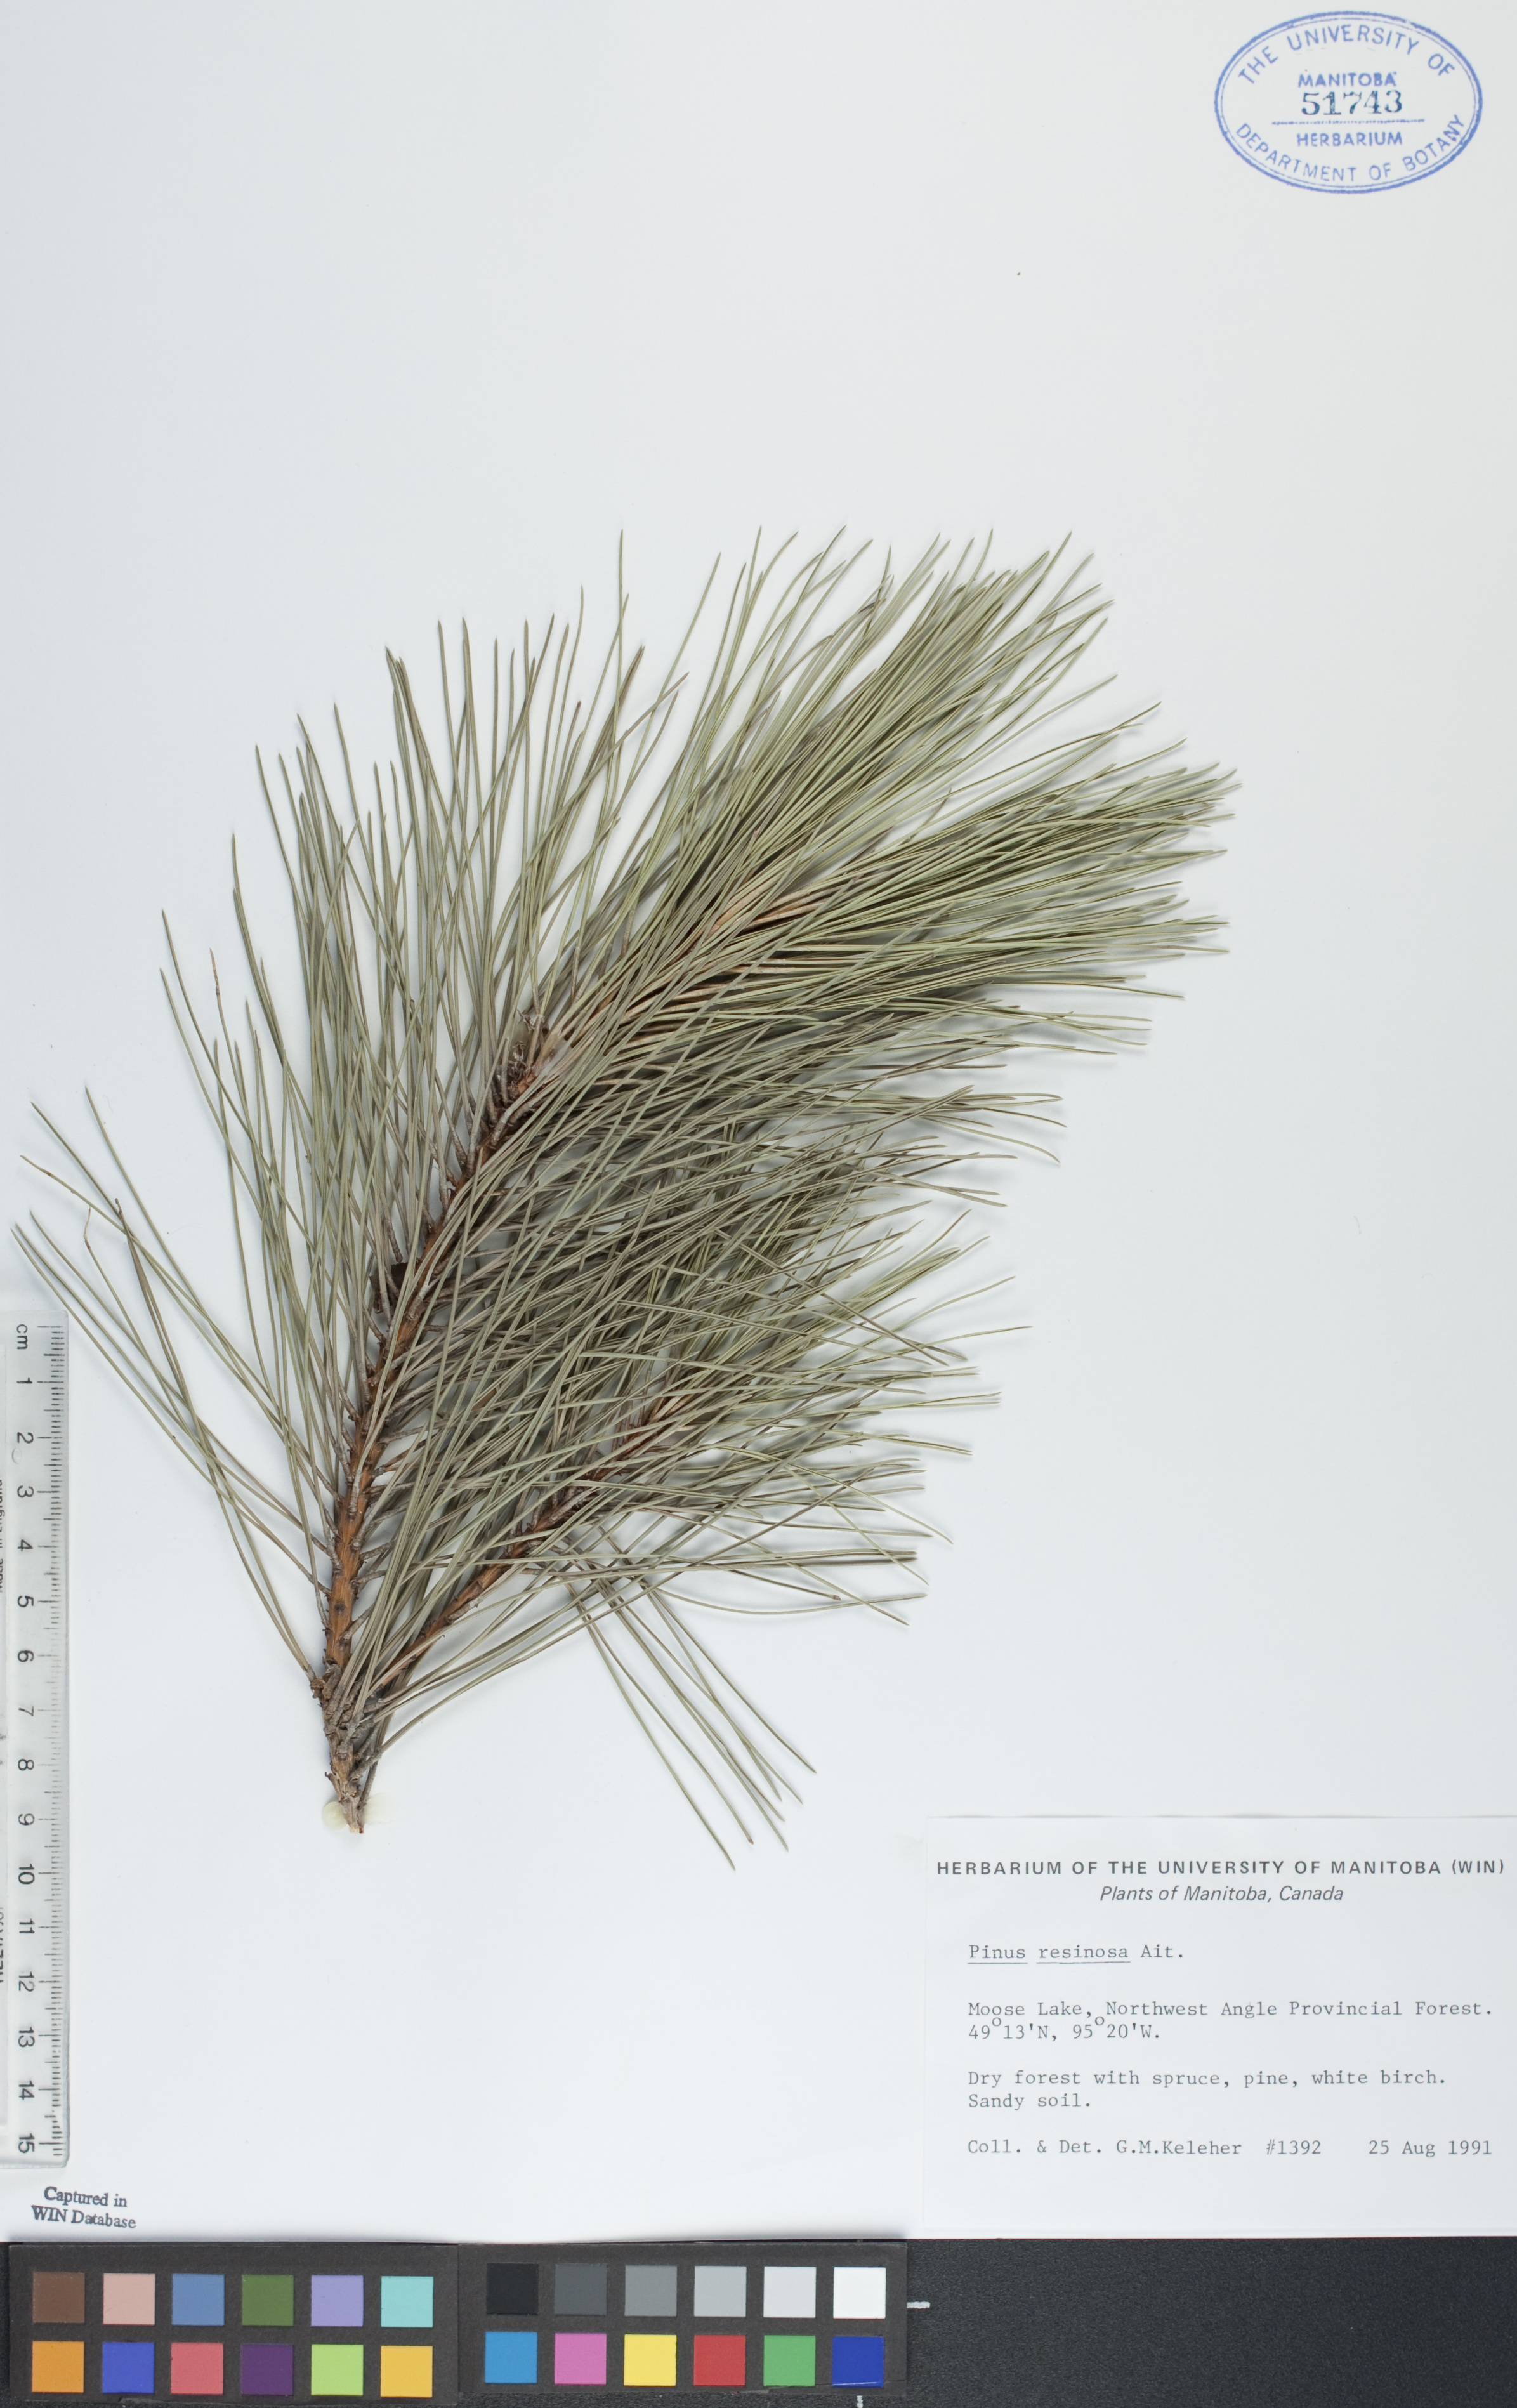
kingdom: Plantae
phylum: Tracheophyta
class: Pinopsida
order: Pinales
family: Pinaceae
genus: Pinus
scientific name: Pinus resinosa
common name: Norway pine
